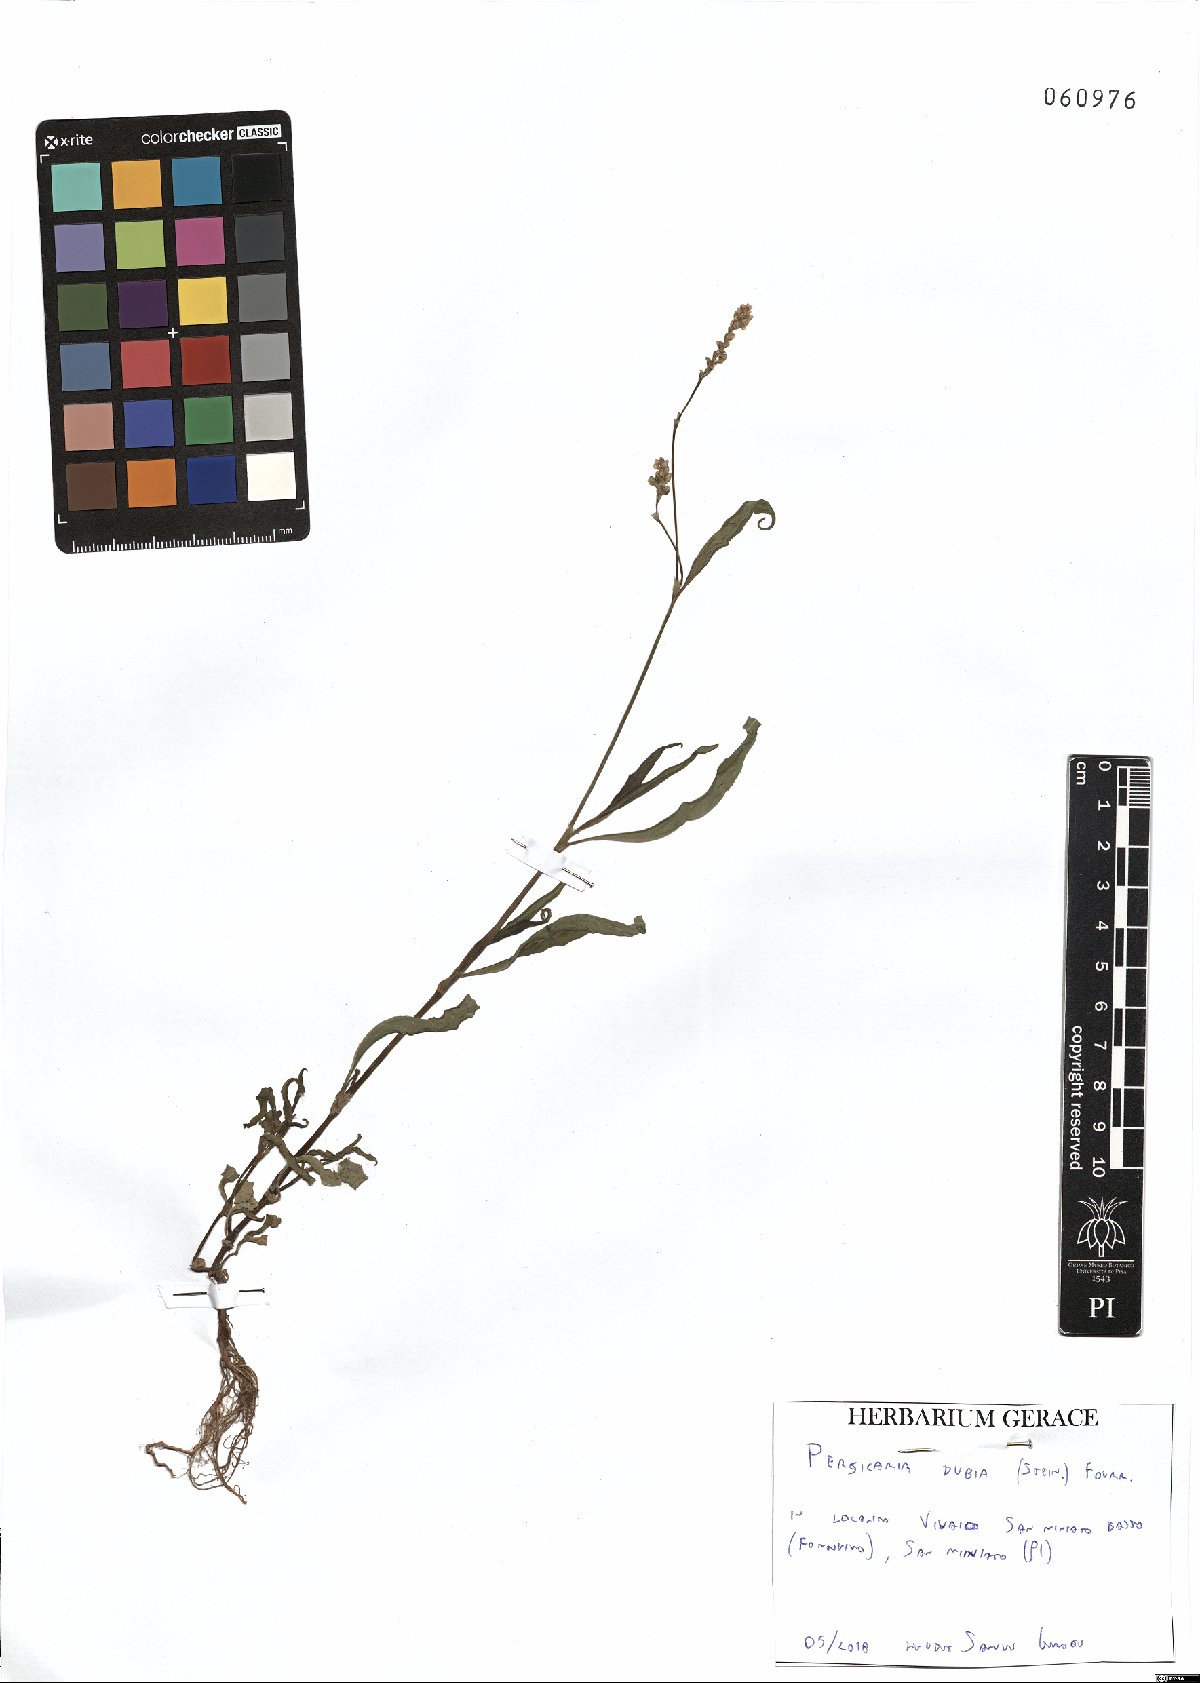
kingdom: Plantae
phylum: Tracheophyta
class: Magnoliopsida
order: Caryophyllales
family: Polygonaceae
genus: Persicaria
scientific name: Persicaria mitis
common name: Tasteless water-pepper
